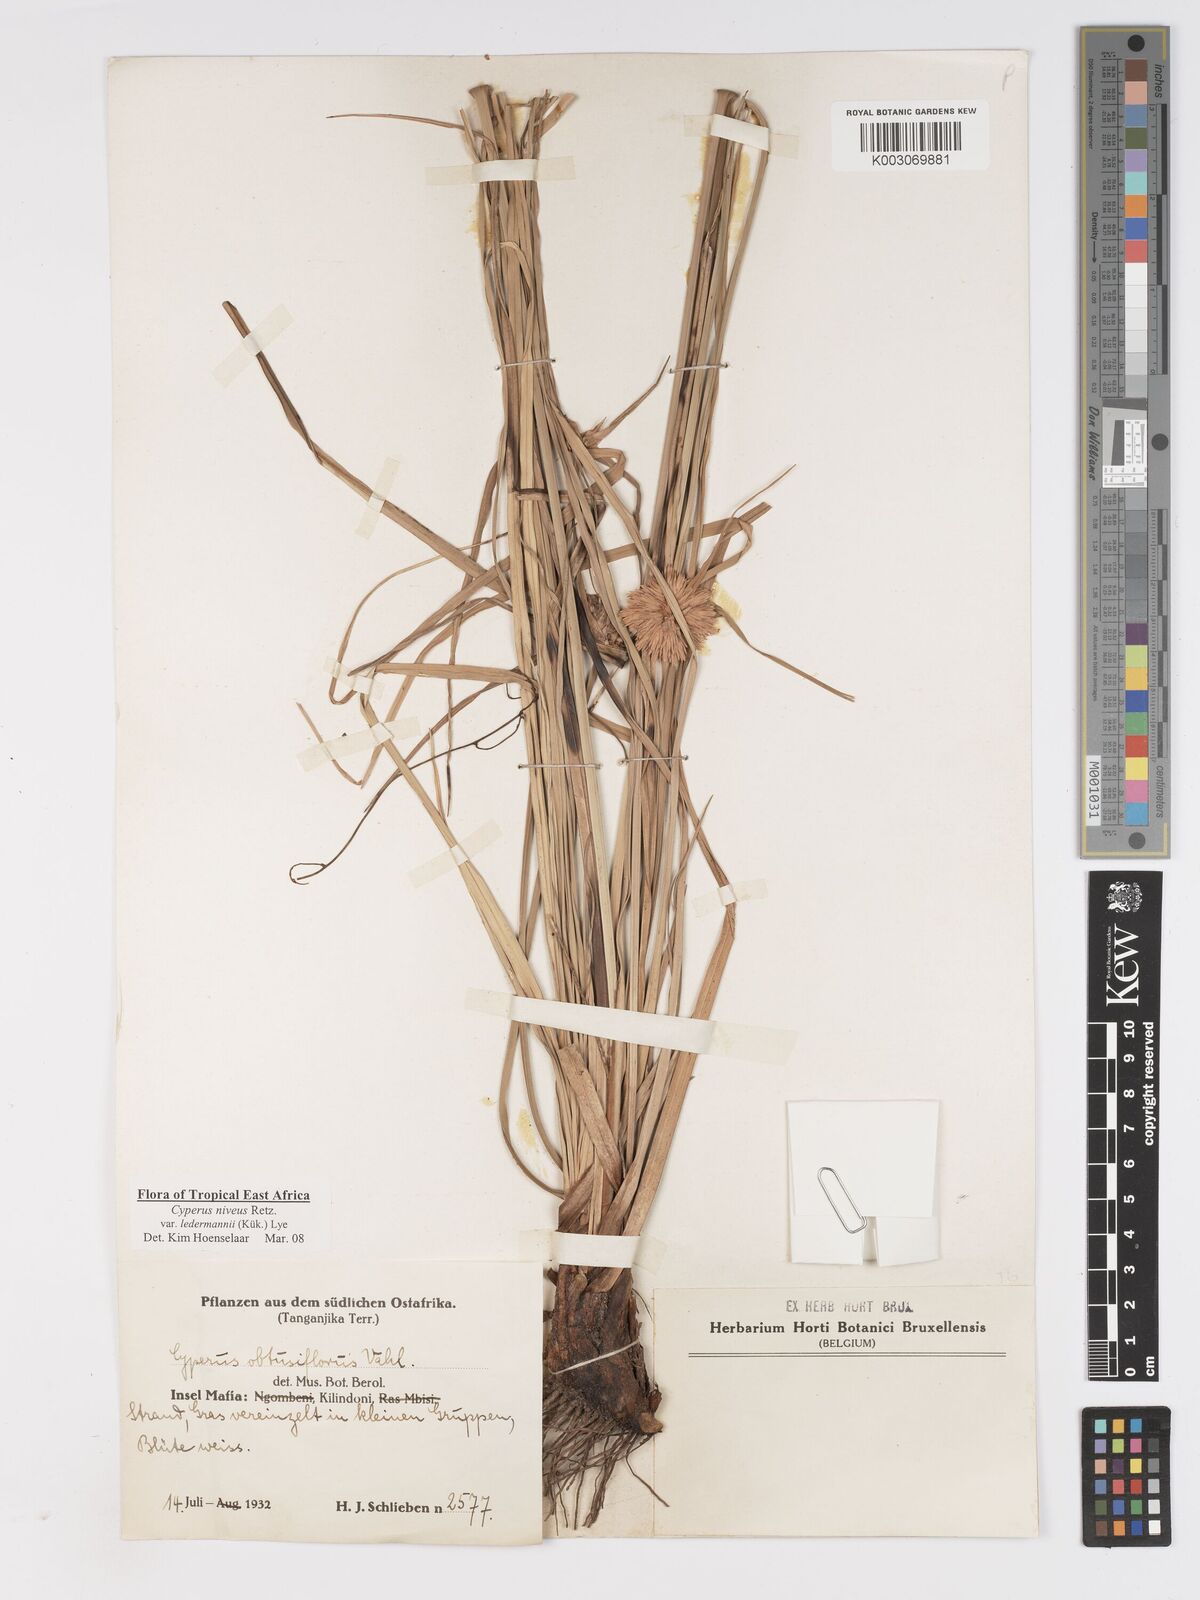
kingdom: Plantae
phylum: Tracheophyta
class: Liliopsida
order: Poales
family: Cyperaceae
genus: Cyperus
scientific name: Cyperus niveus
